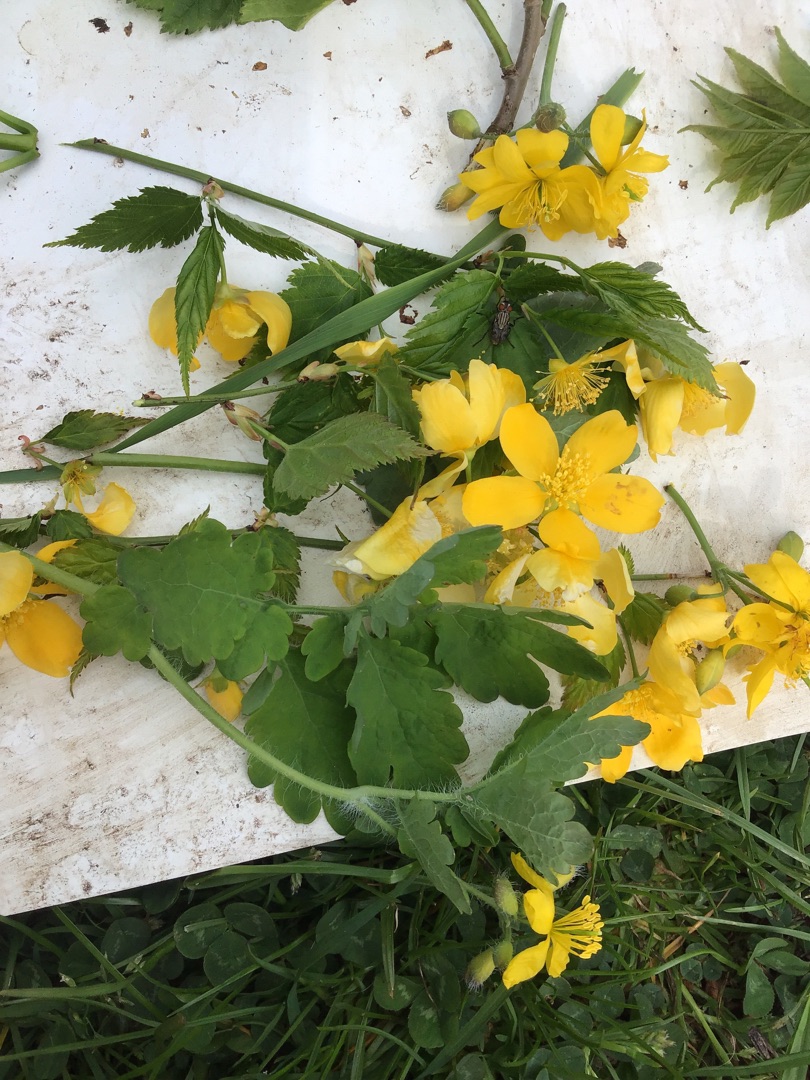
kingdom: Plantae
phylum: Tracheophyta
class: Magnoliopsida
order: Ranunculales
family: Papaveraceae
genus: Chelidonium
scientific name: Chelidonium majus
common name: Svaleurt
